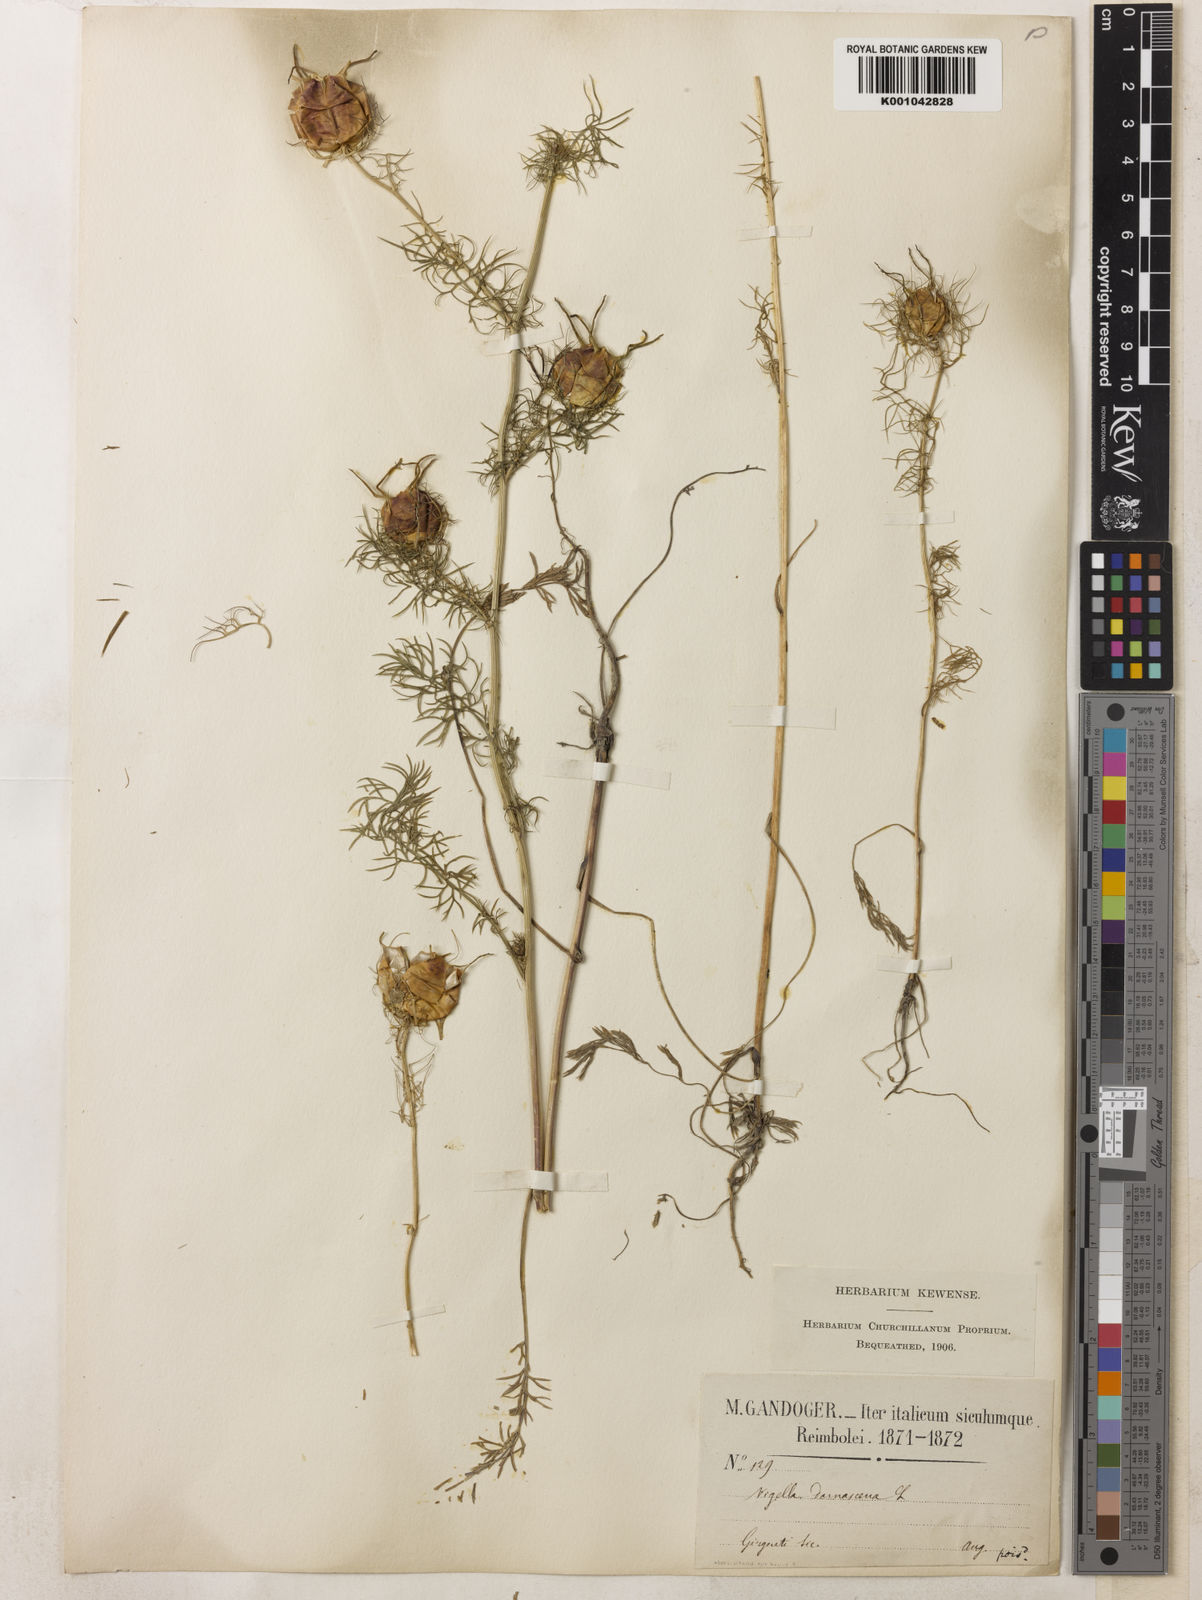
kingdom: Plantae
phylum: Tracheophyta
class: Magnoliopsida
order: Ranunculales
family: Ranunculaceae
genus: Nigella
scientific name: Nigella damascena
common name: Love-in-a-mist
